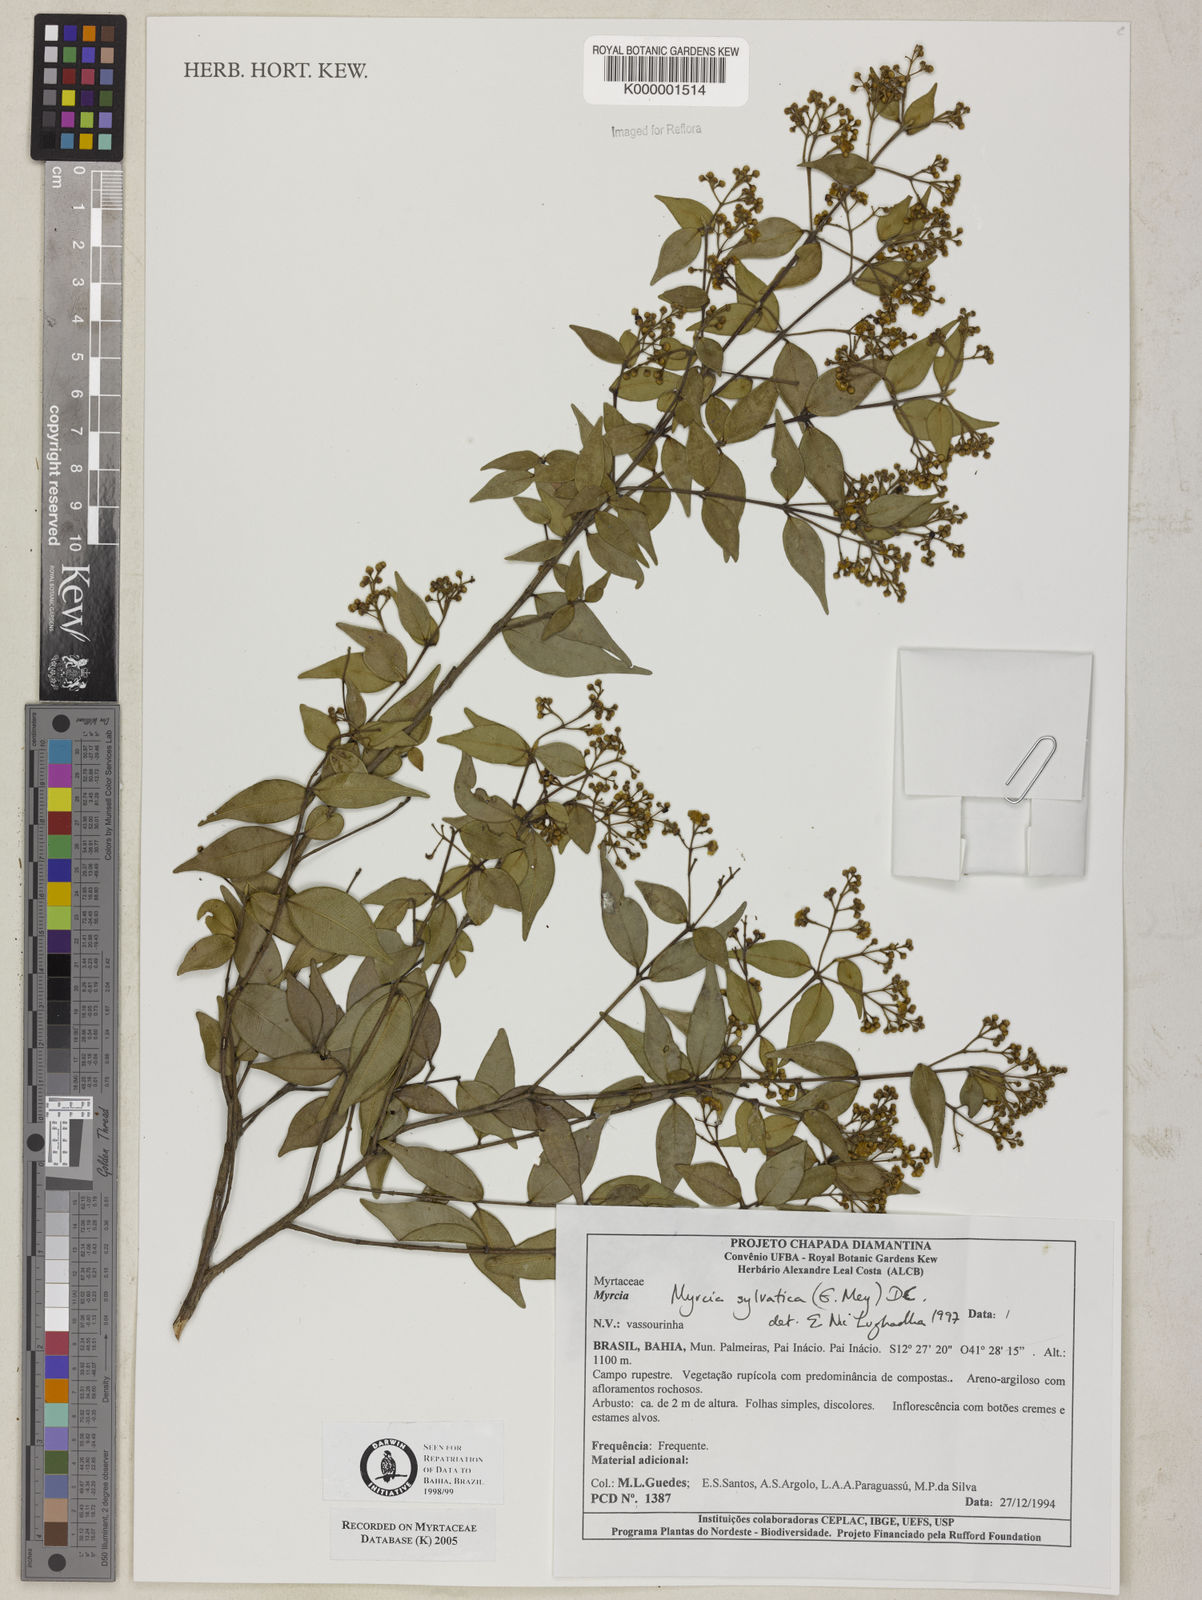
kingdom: Plantae
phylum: Tracheophyta
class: Magnoliopsida
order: Myrtales
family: Myrtaceae
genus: Myrcia
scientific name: Myrcia sylvatica
